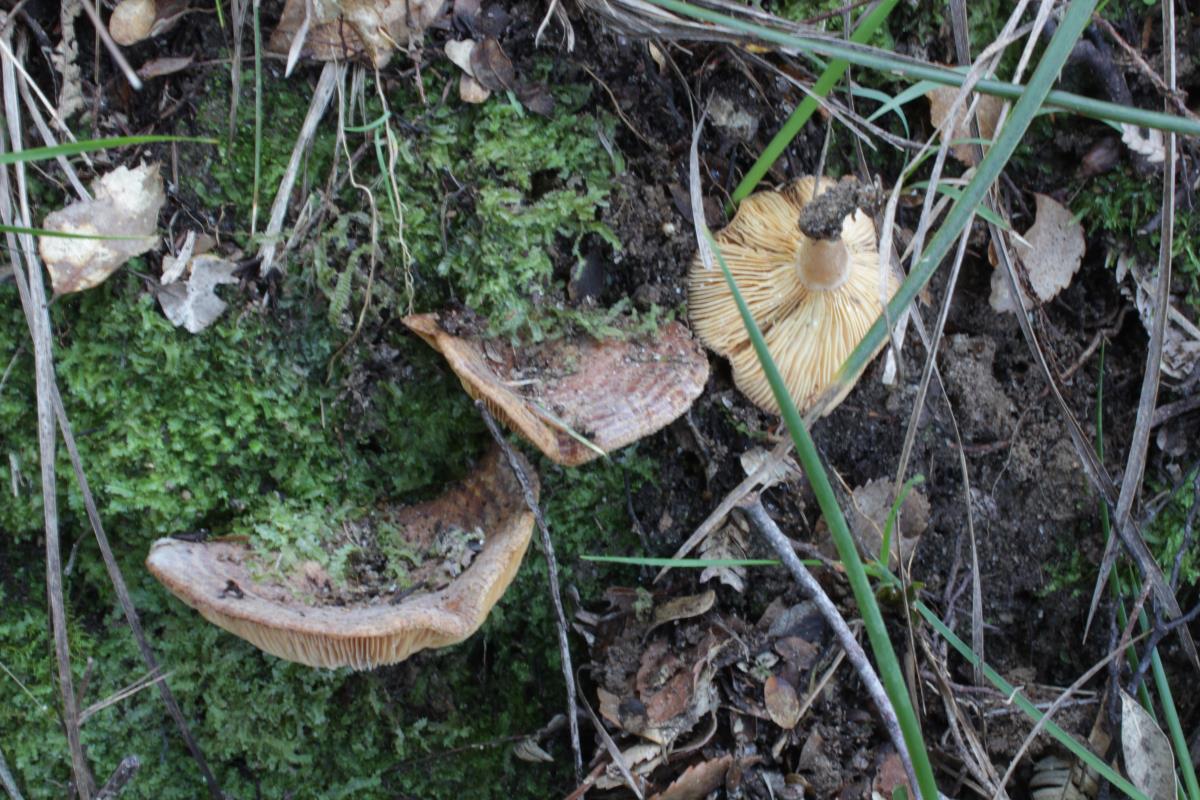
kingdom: Fungi
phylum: Basidiomycota
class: Agaricomycetes
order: Russulales
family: Russulaceae
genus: Lactarius
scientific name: Lactarius tawai
